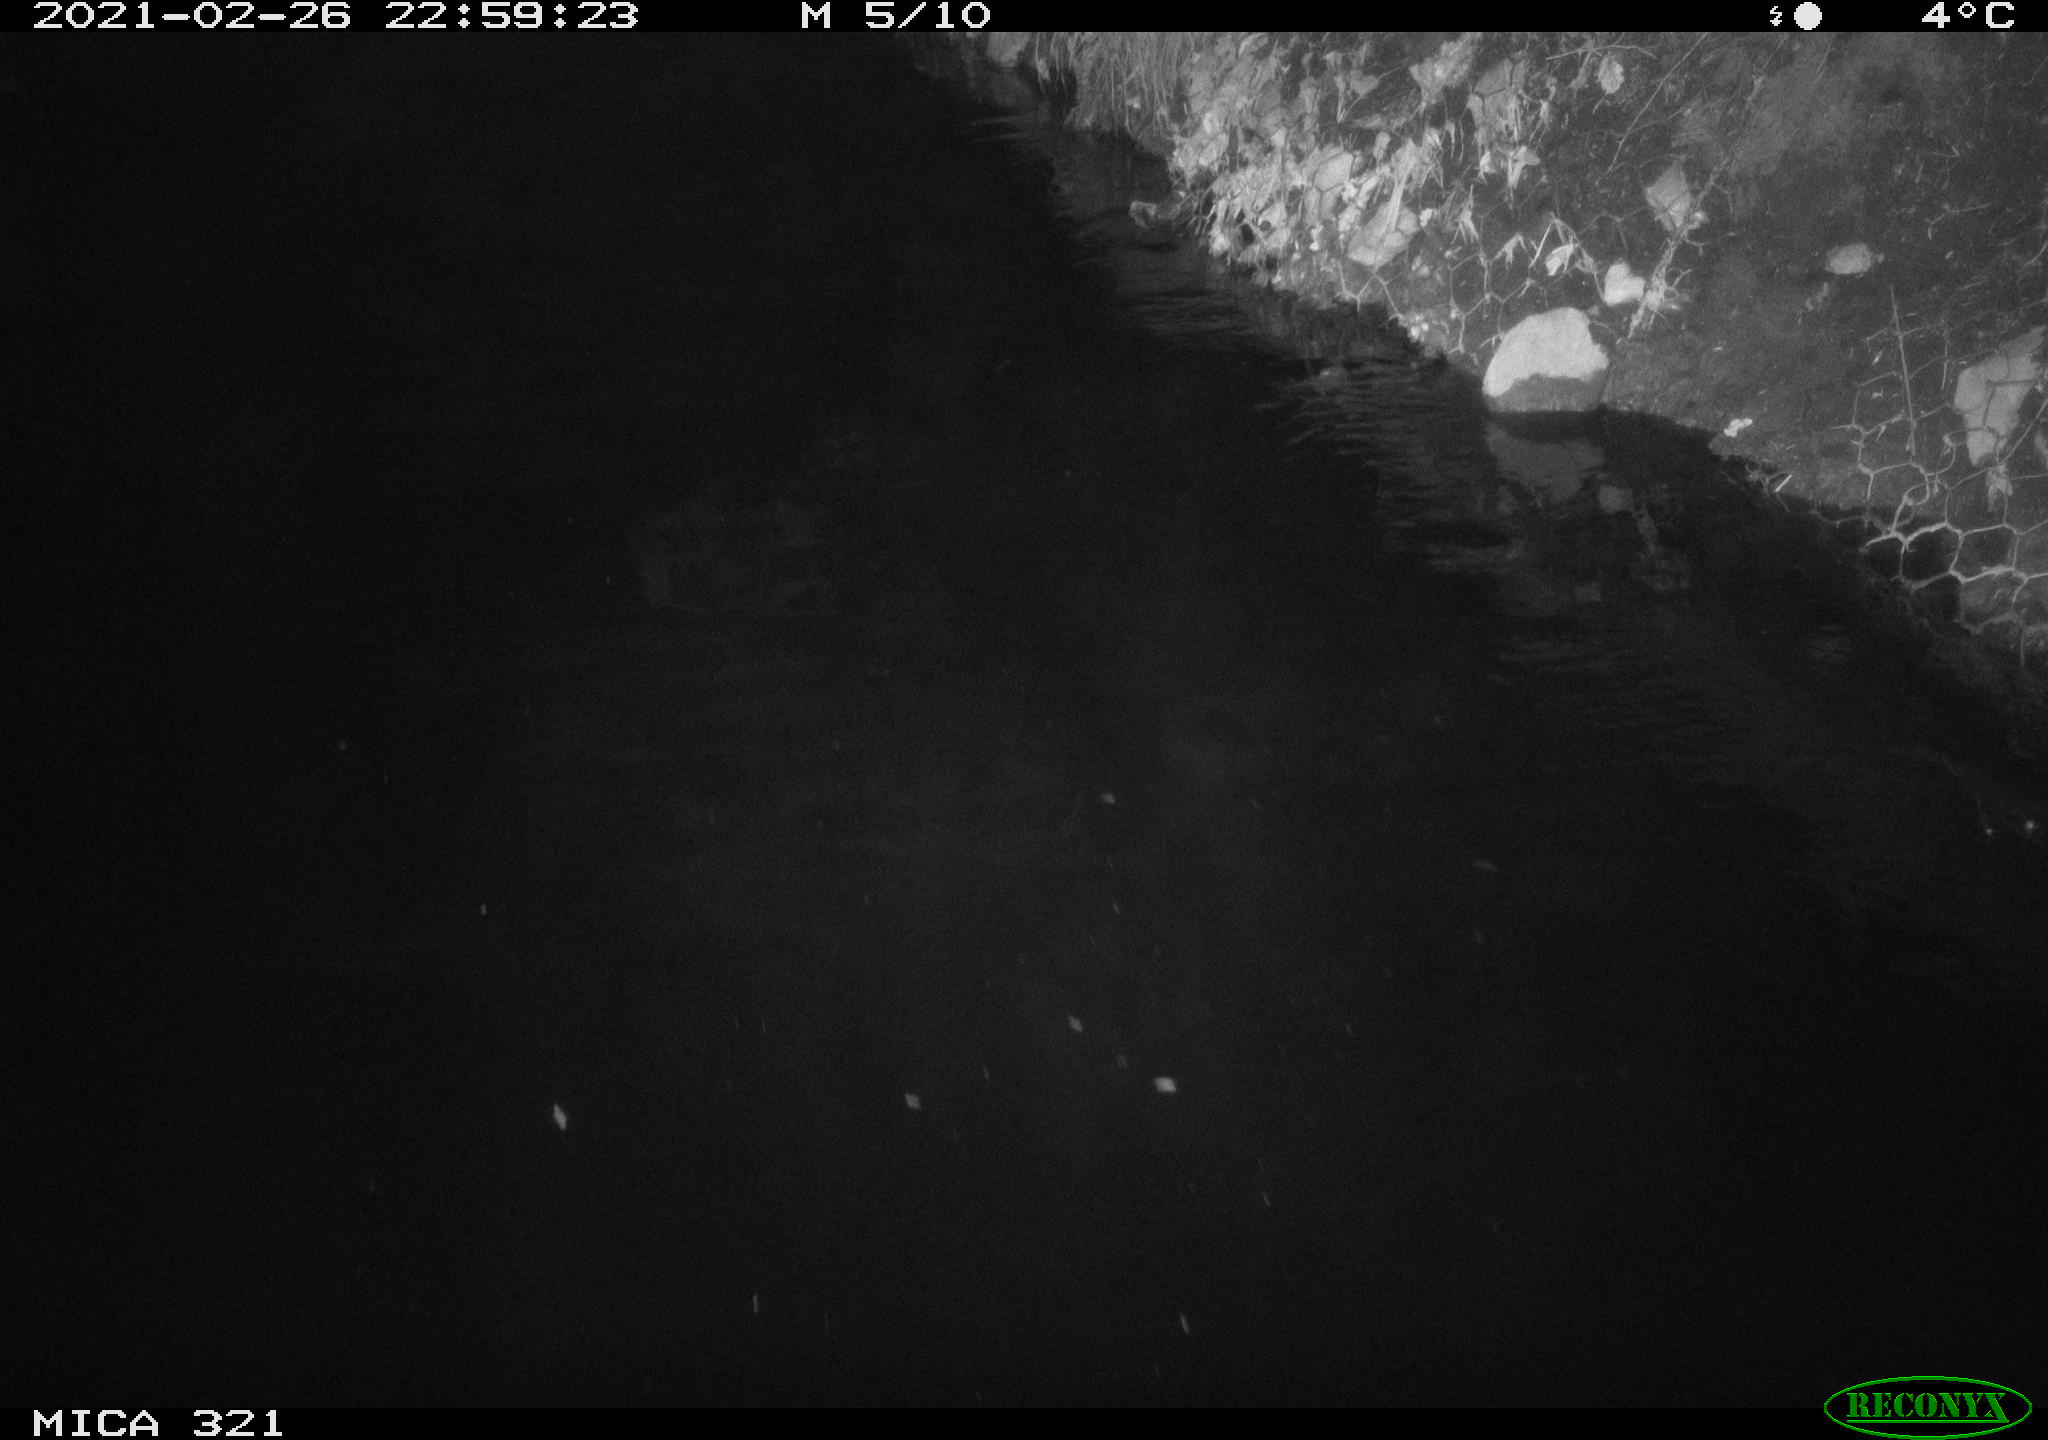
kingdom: Animalia
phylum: Chordata
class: Aves
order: Anseriformes
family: Anatidae
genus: Anas
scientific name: Anas platyrhynchos
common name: Mallard
